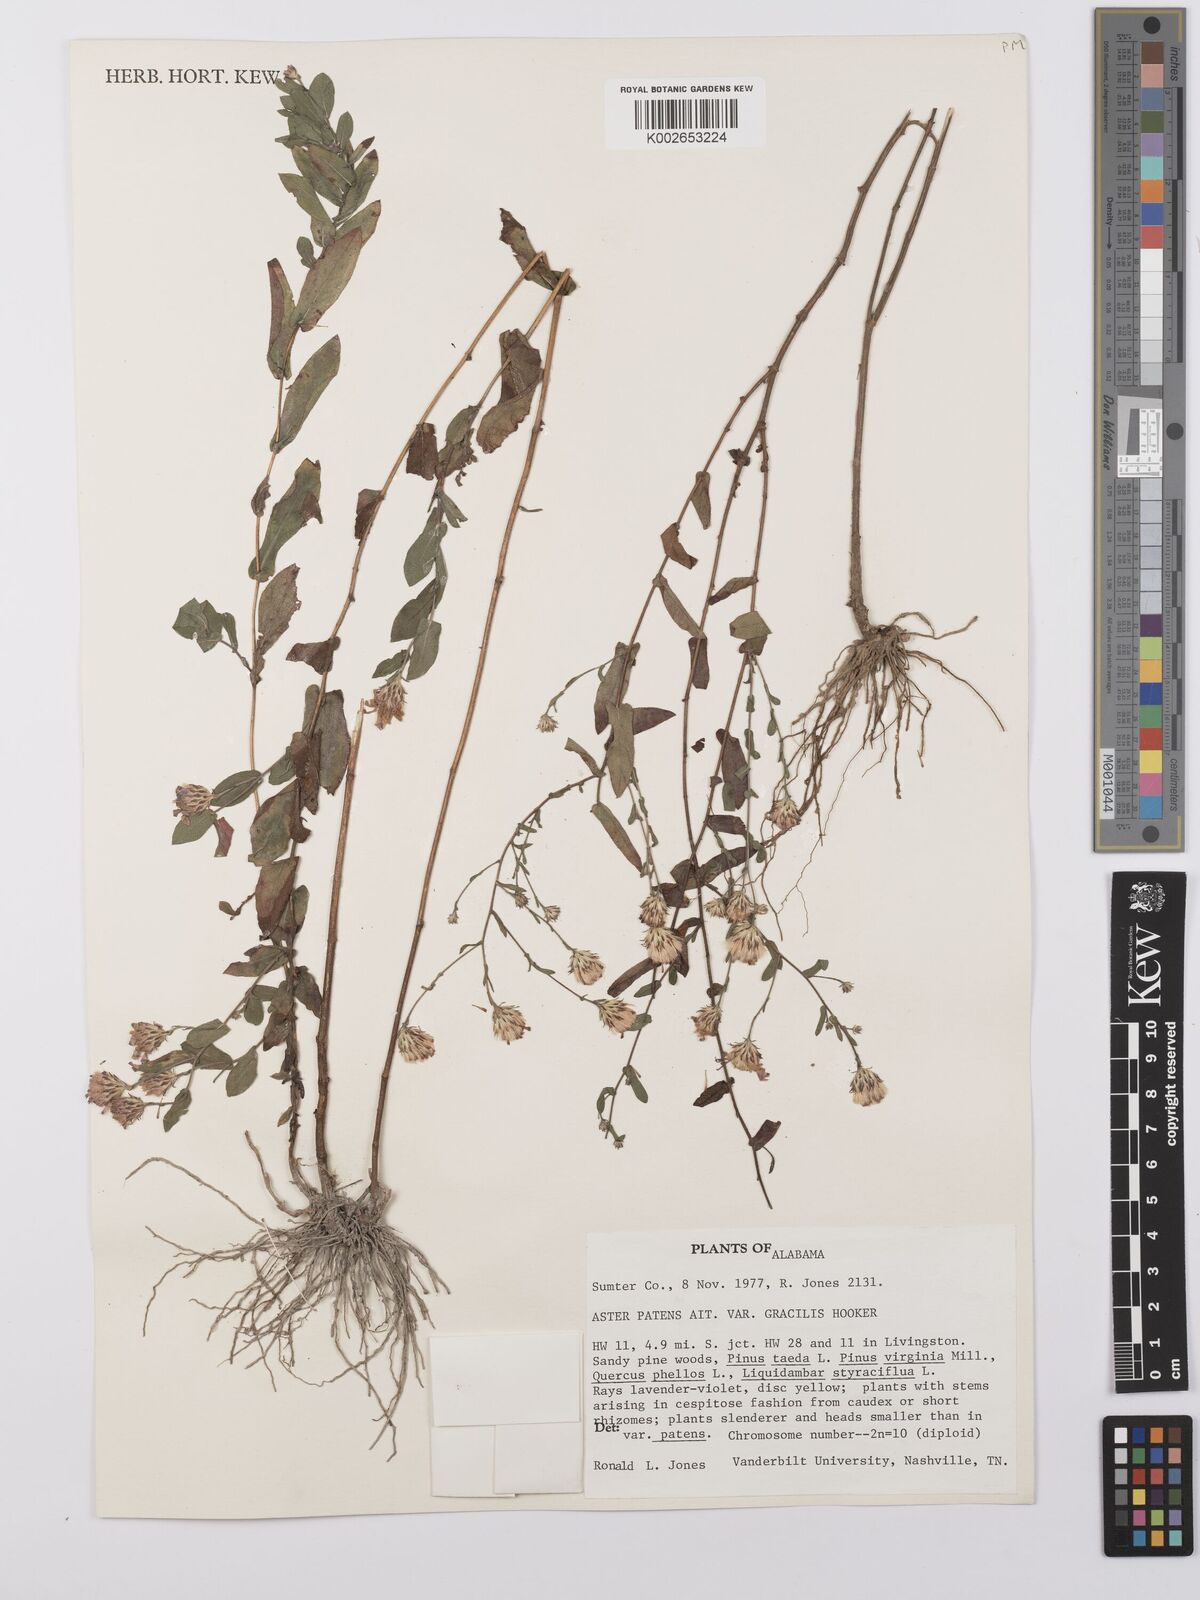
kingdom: Plantae
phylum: Tracheophyta
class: Magnoliopsida
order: Asterales
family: Asteraceae
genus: Symphyotrichum
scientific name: Symphyotrichum patens
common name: Late purple aster
